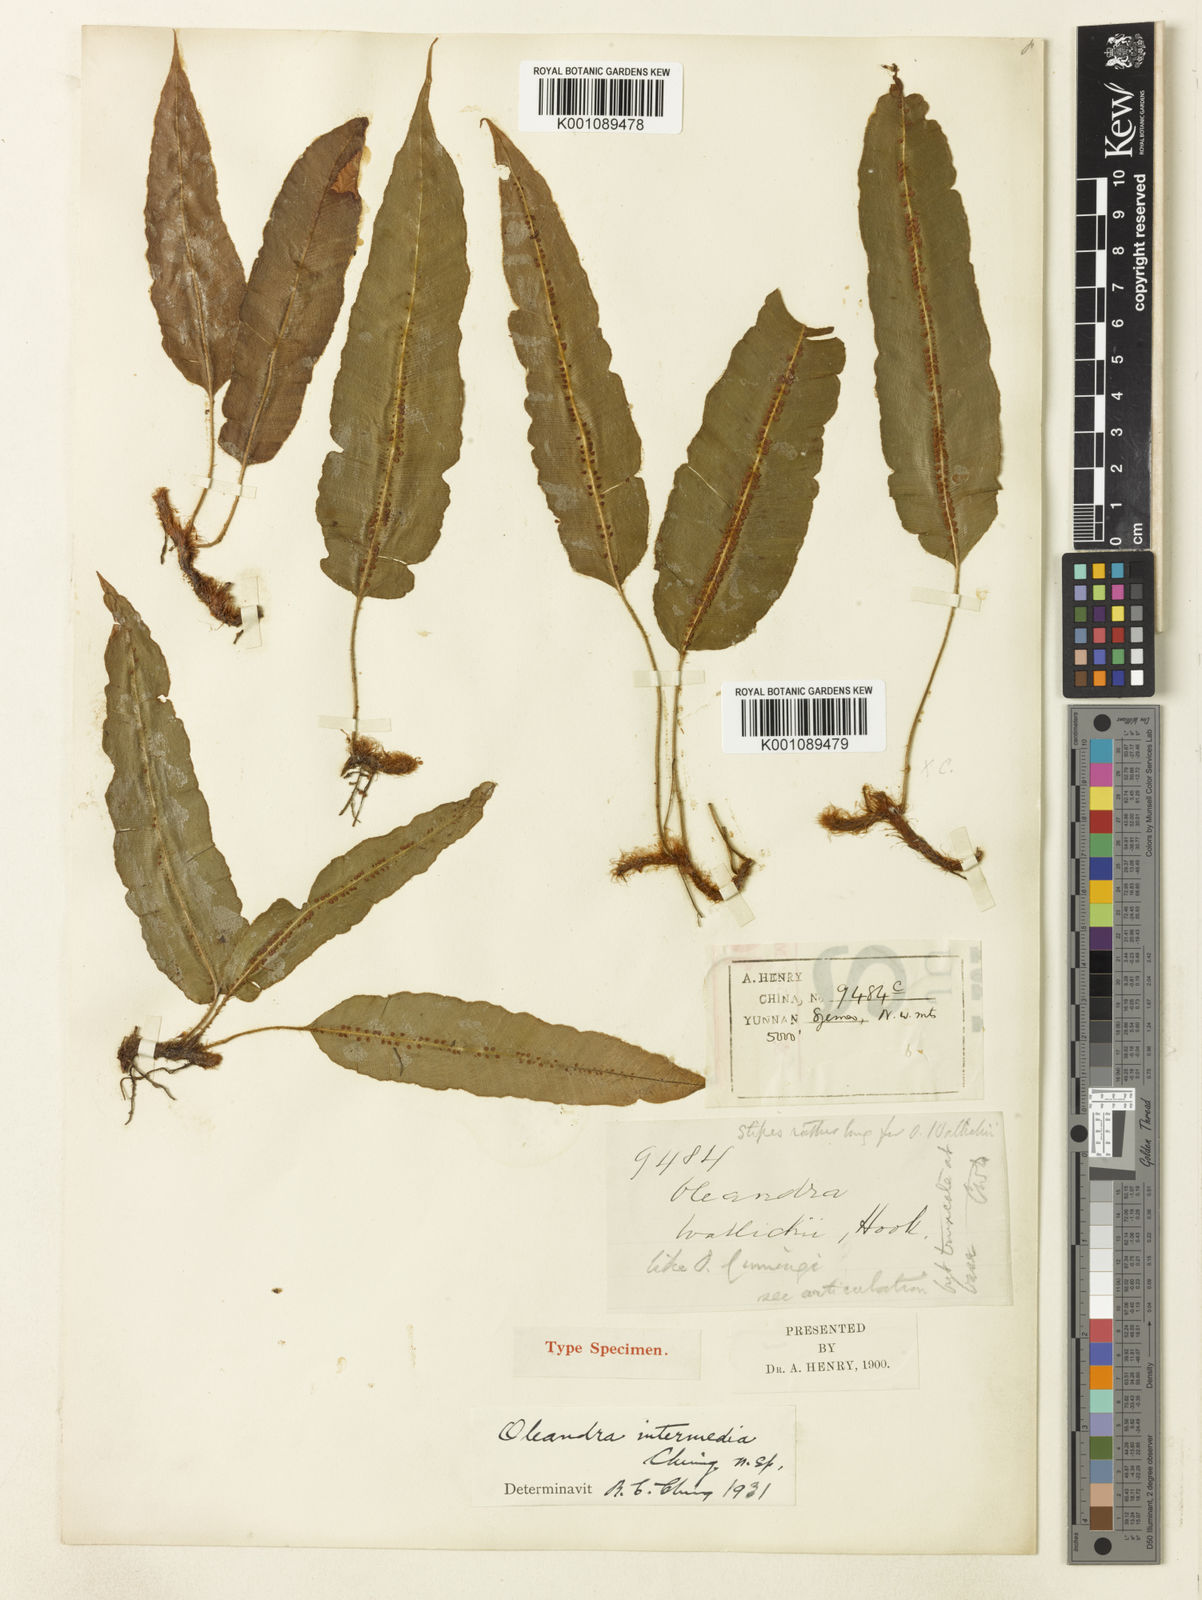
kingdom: Plantae
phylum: Tracheophyta
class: Polypodiopsida
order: Polypodiales
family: Oleandraceae
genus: Oleandra
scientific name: Oleandra cumingii
